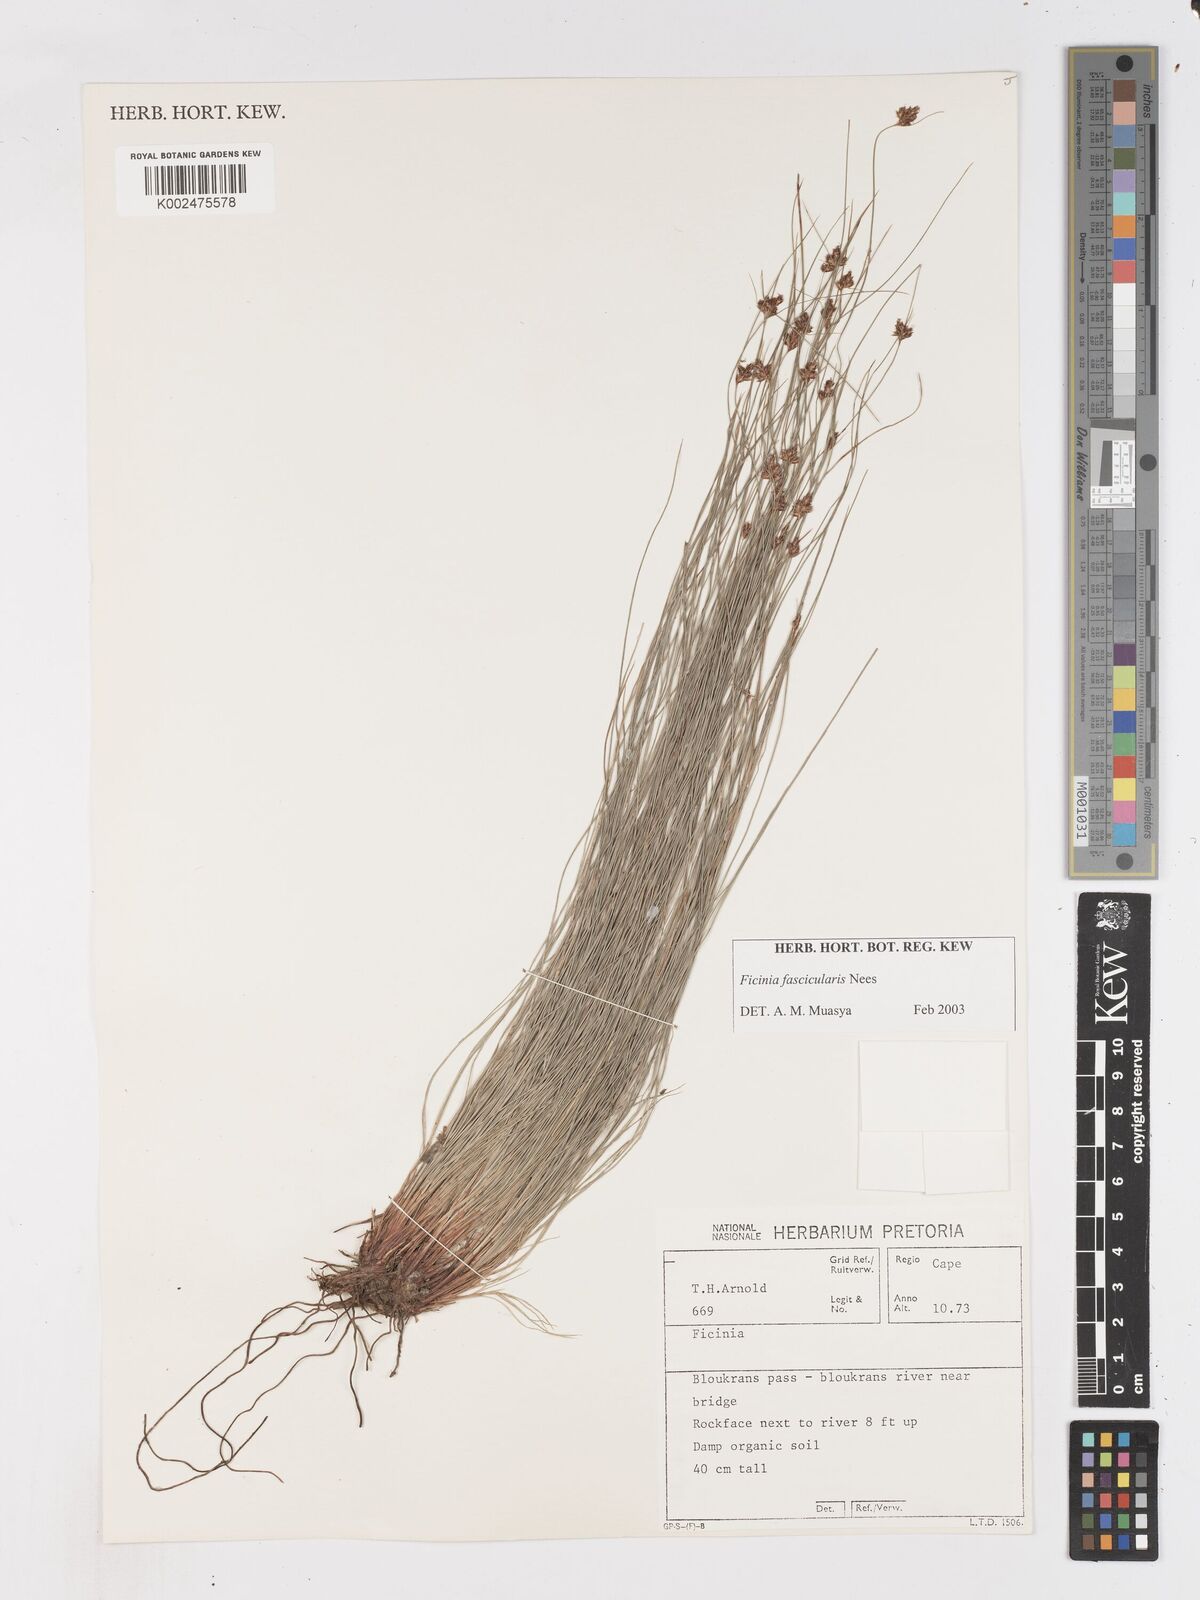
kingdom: Plantae
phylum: Tracheophyta
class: Liliopsida
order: Poales
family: Cyperaceae
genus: Ficinia
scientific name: Ficinia fascicularis
